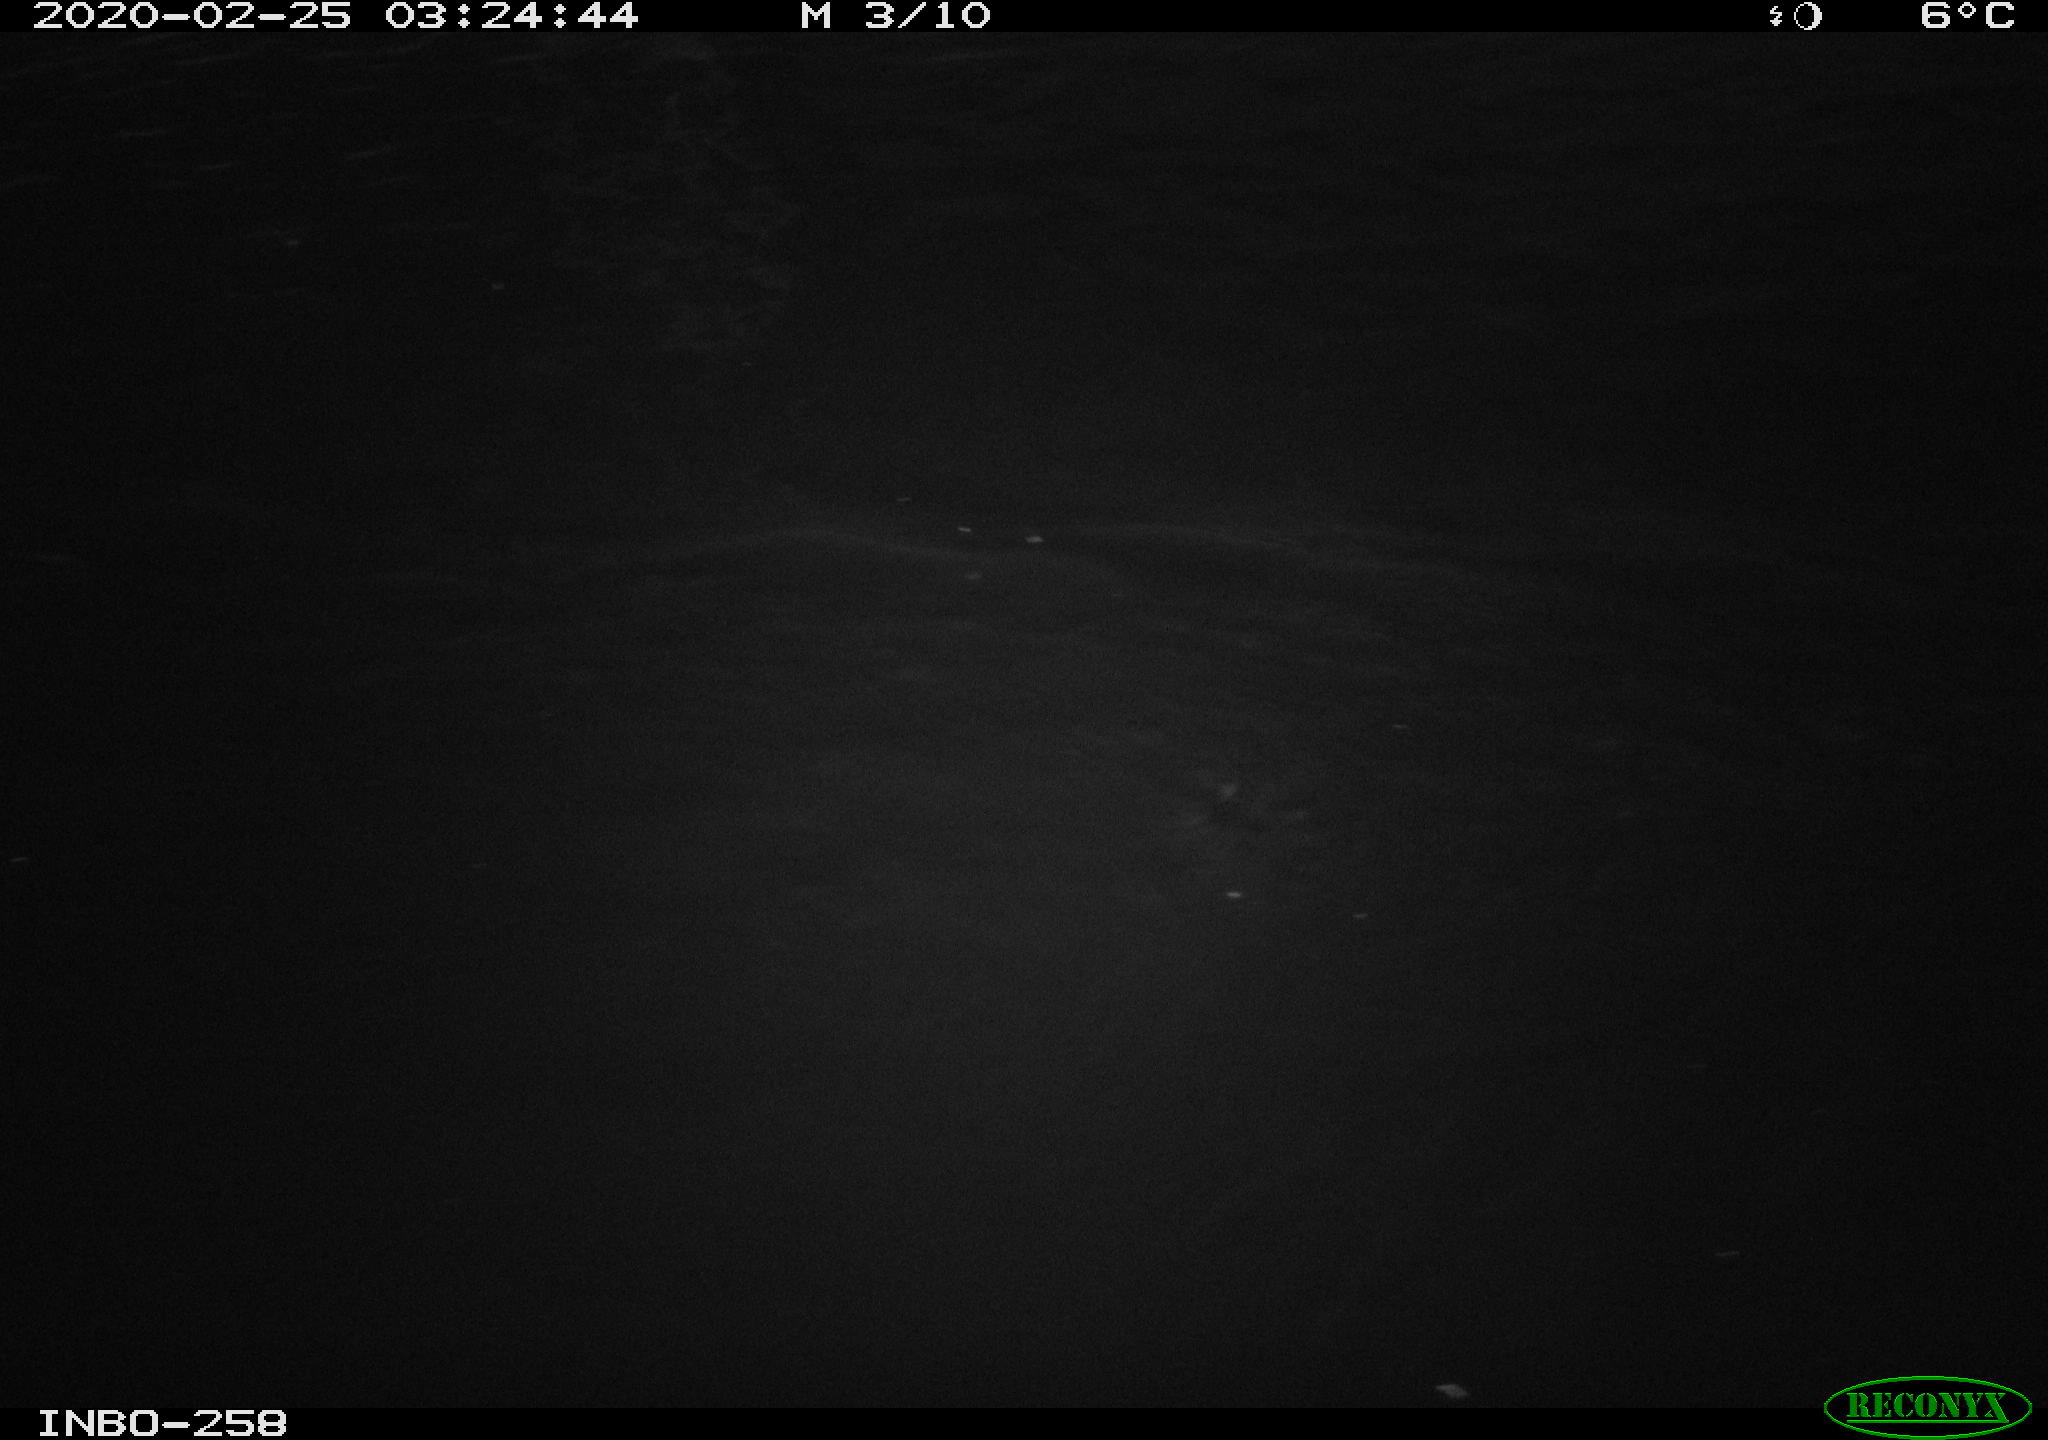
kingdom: Animalia
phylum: Chordata
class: Aves
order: Anseriformes
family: Anatidae
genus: Anas
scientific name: Anas platyrhynchos
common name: Mallard
